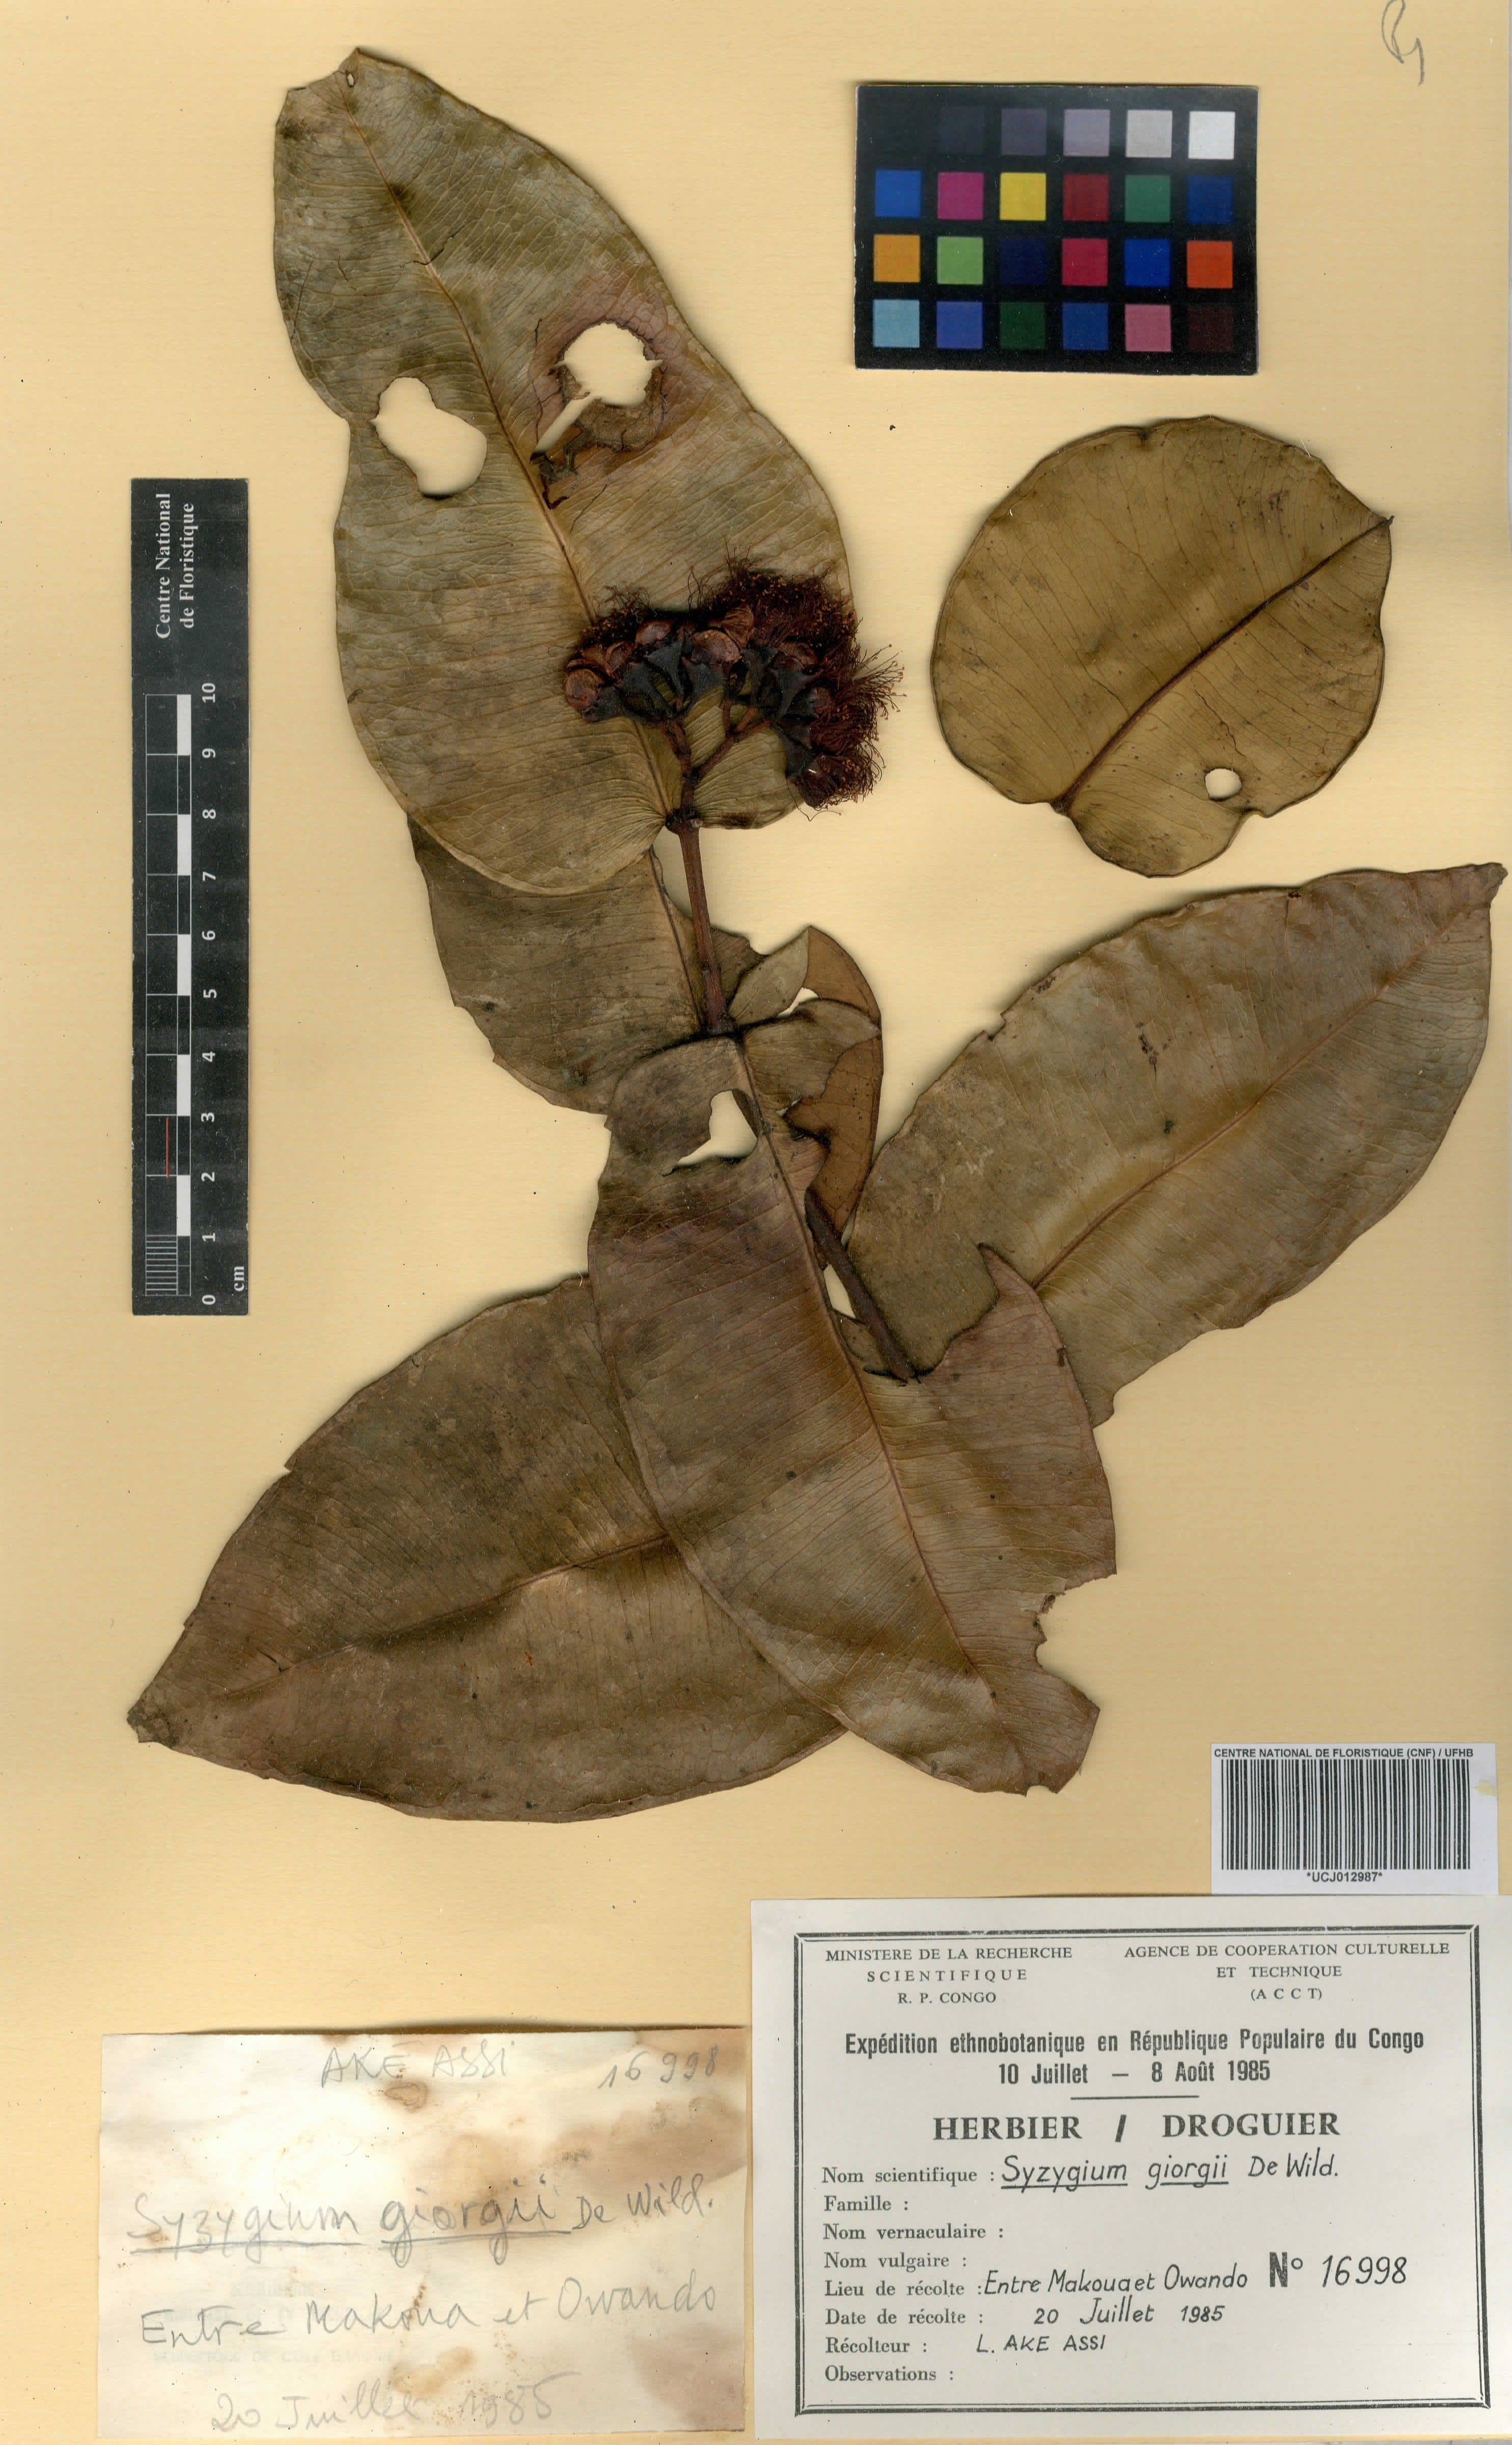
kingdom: Plantae
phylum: Tracheophyta
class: Magnoliopsida
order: Myrtales
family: Myrtaceae
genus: Syzygium
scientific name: Syzygium giorgii
